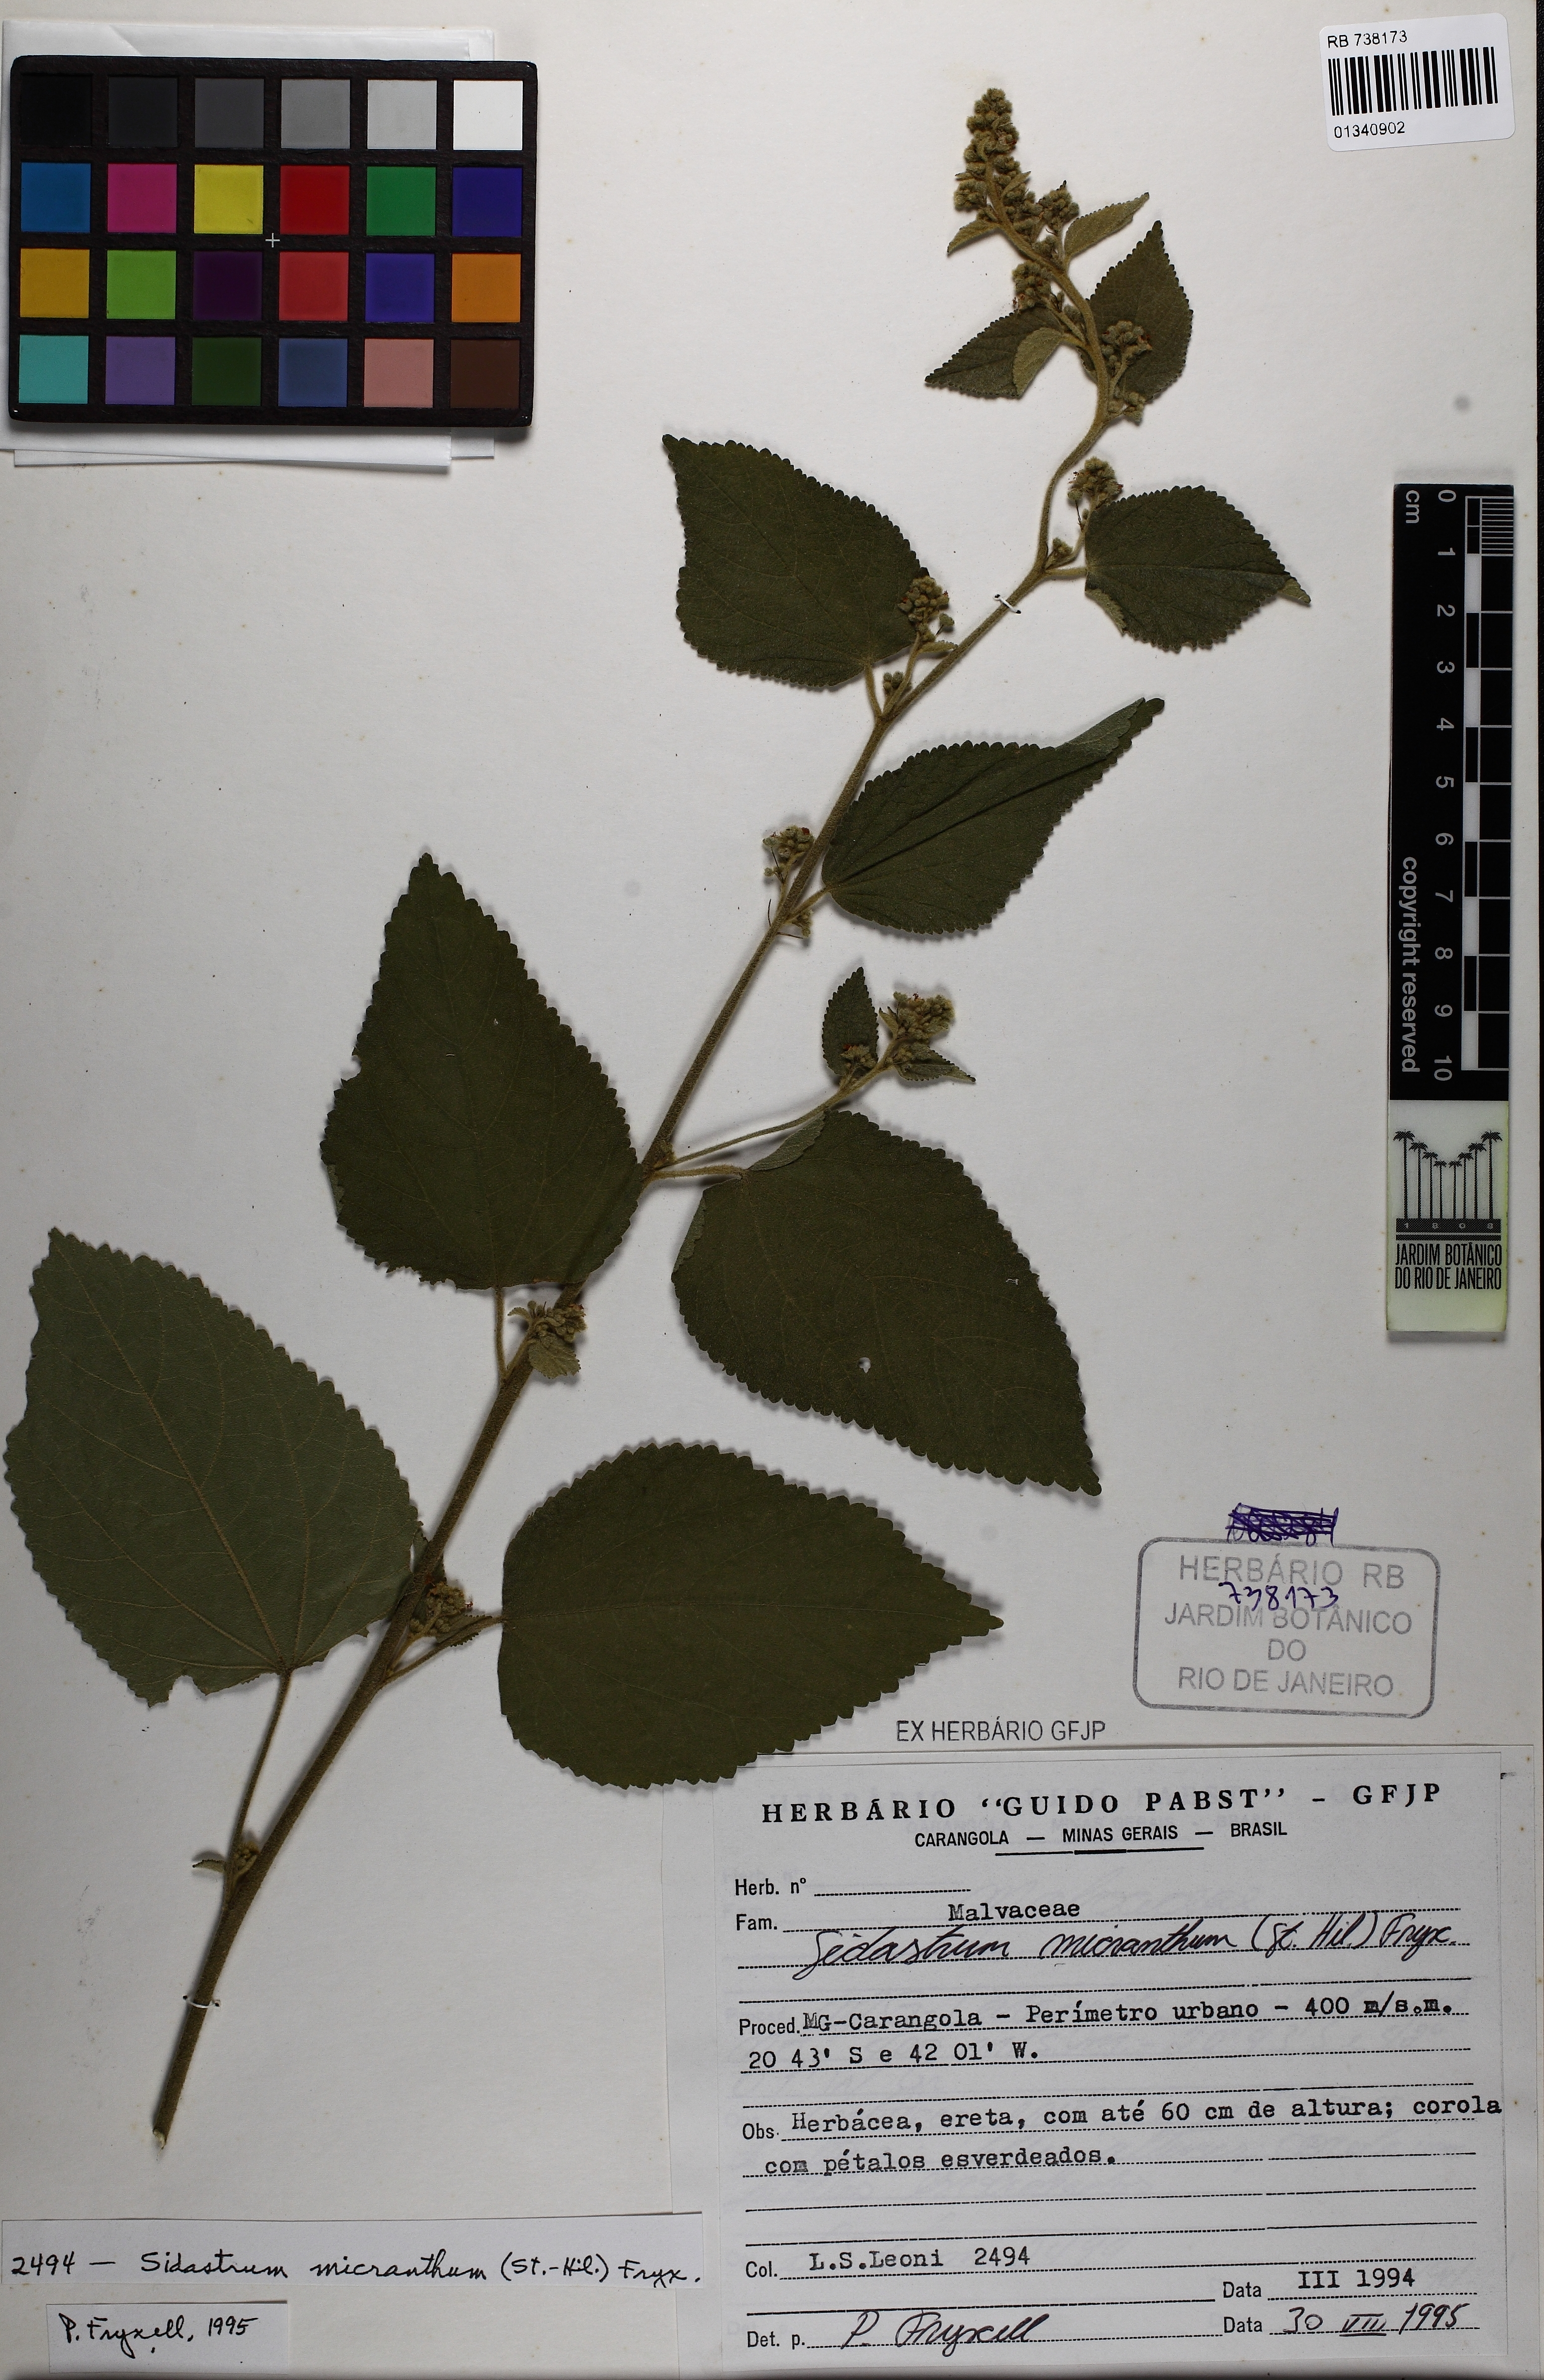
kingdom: Plantae
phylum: Tracheophyta
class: Magnoliopsida
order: Malvales
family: Malvaceae
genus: Sidastrum
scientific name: Sidastrum micranthum
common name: Dainty sandmallow
